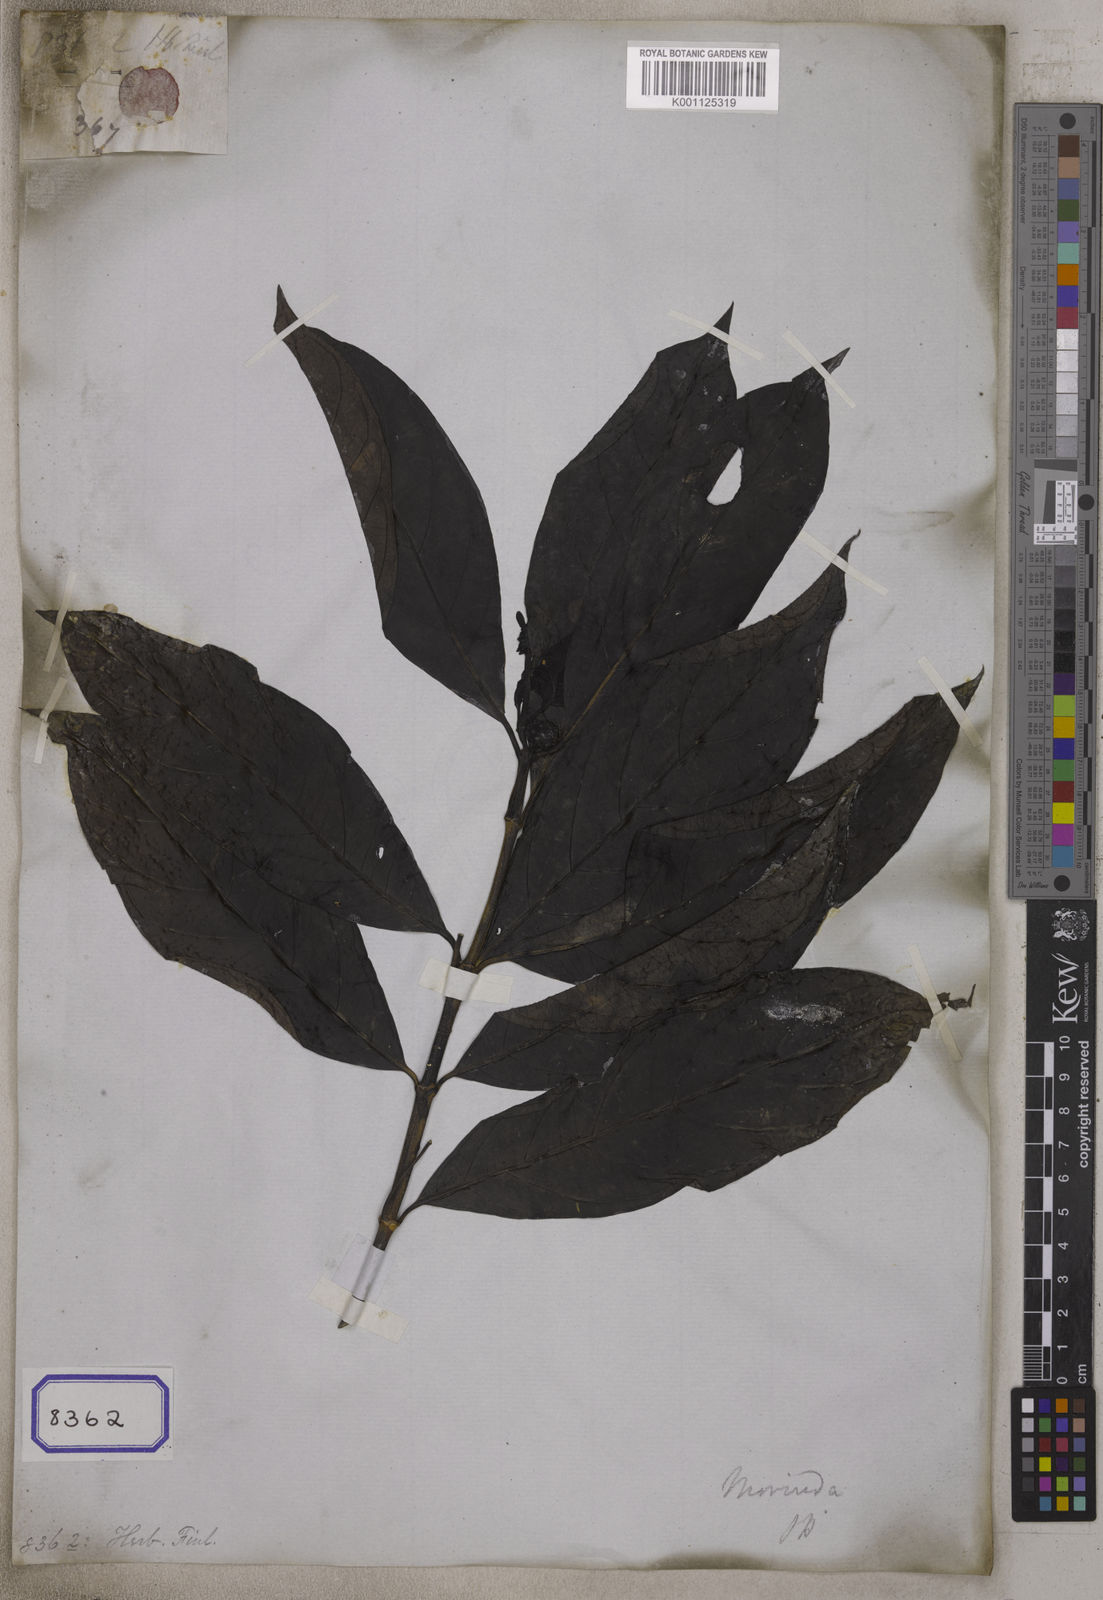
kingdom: Plantae
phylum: Tracheophyta
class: Magnoliopsida
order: Gentianales
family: Rubiaceae
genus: Psychotria
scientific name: Psychotria
